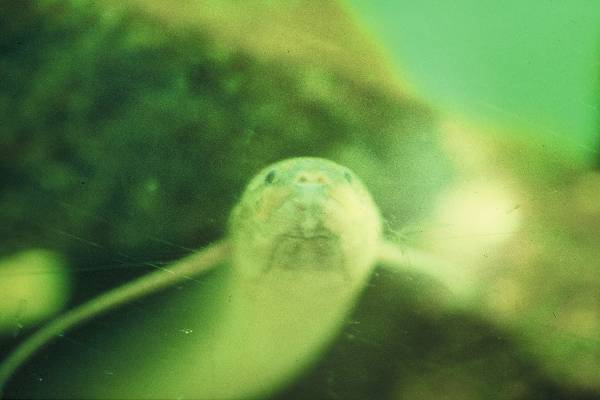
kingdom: Animalia
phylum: Chordata
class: Dipneusti
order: Ceratodontiformes
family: Protopteridae
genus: Protopterus
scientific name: Protopterus annectens
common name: Lungfish
